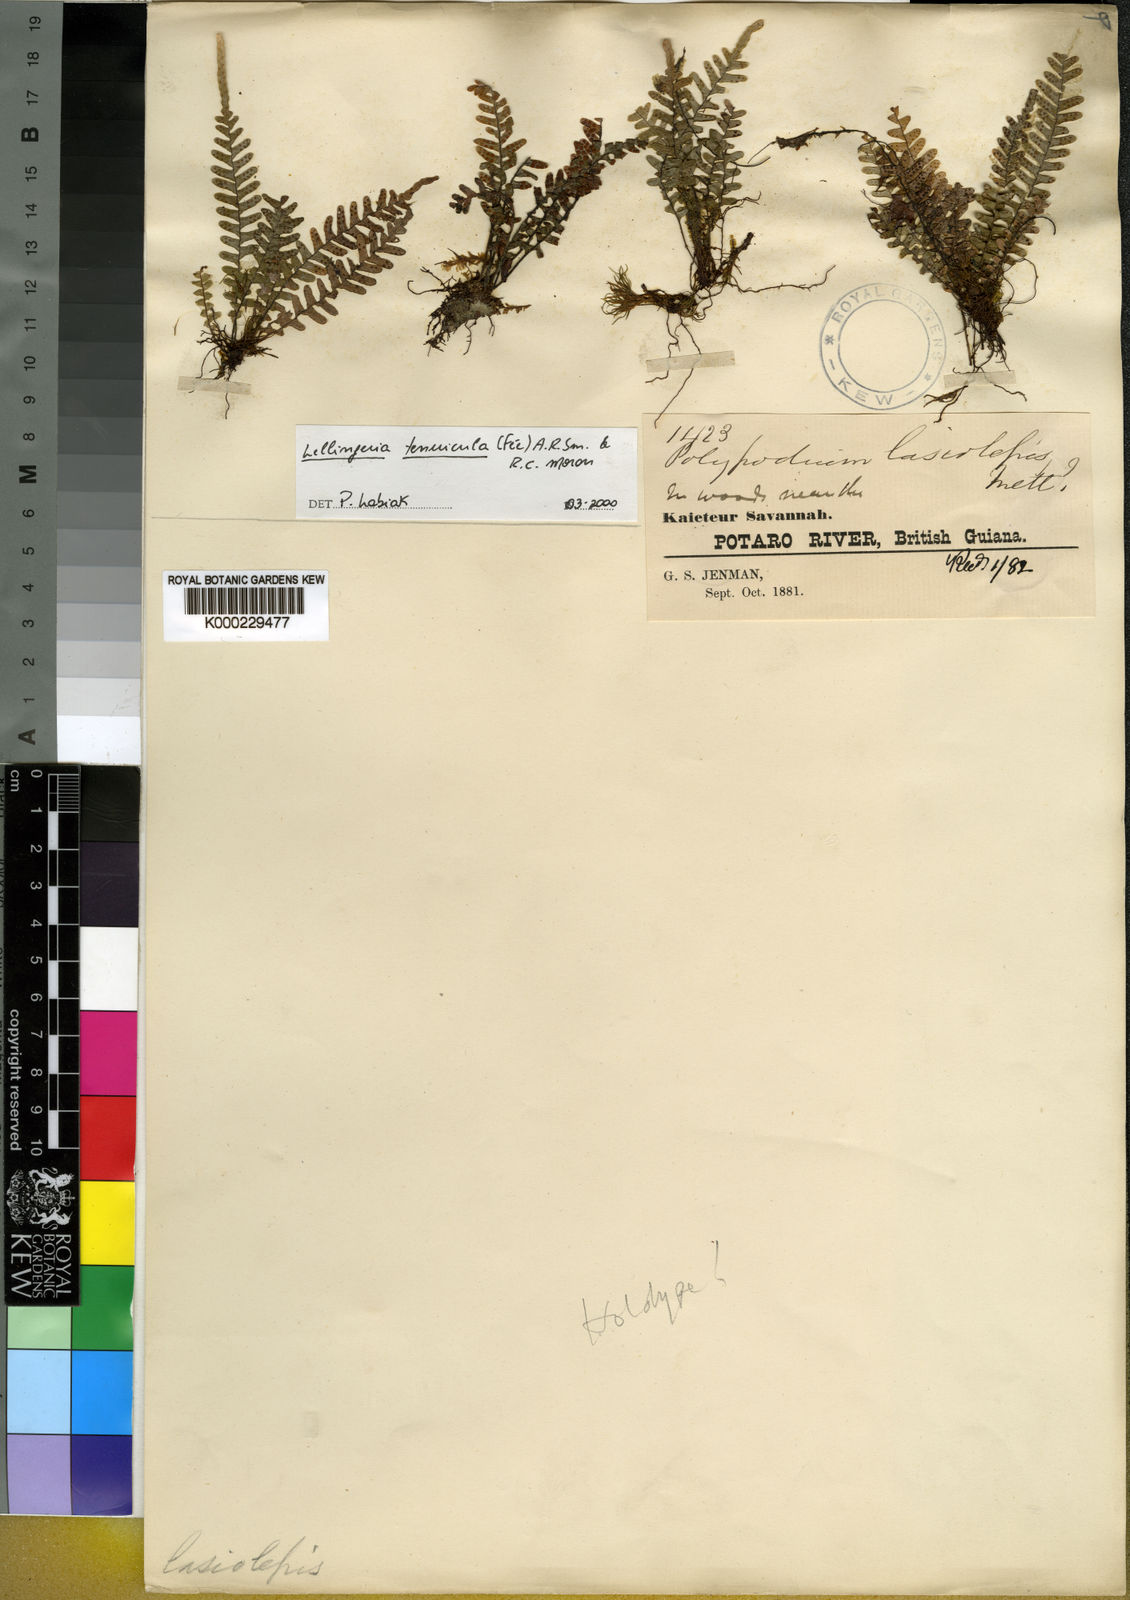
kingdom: Plantae
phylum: Tracheophyta
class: Polypodiopsida
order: Polypodiales
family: Polypodiaceae
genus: Lellingeria
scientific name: Lellingeria kaieteura
